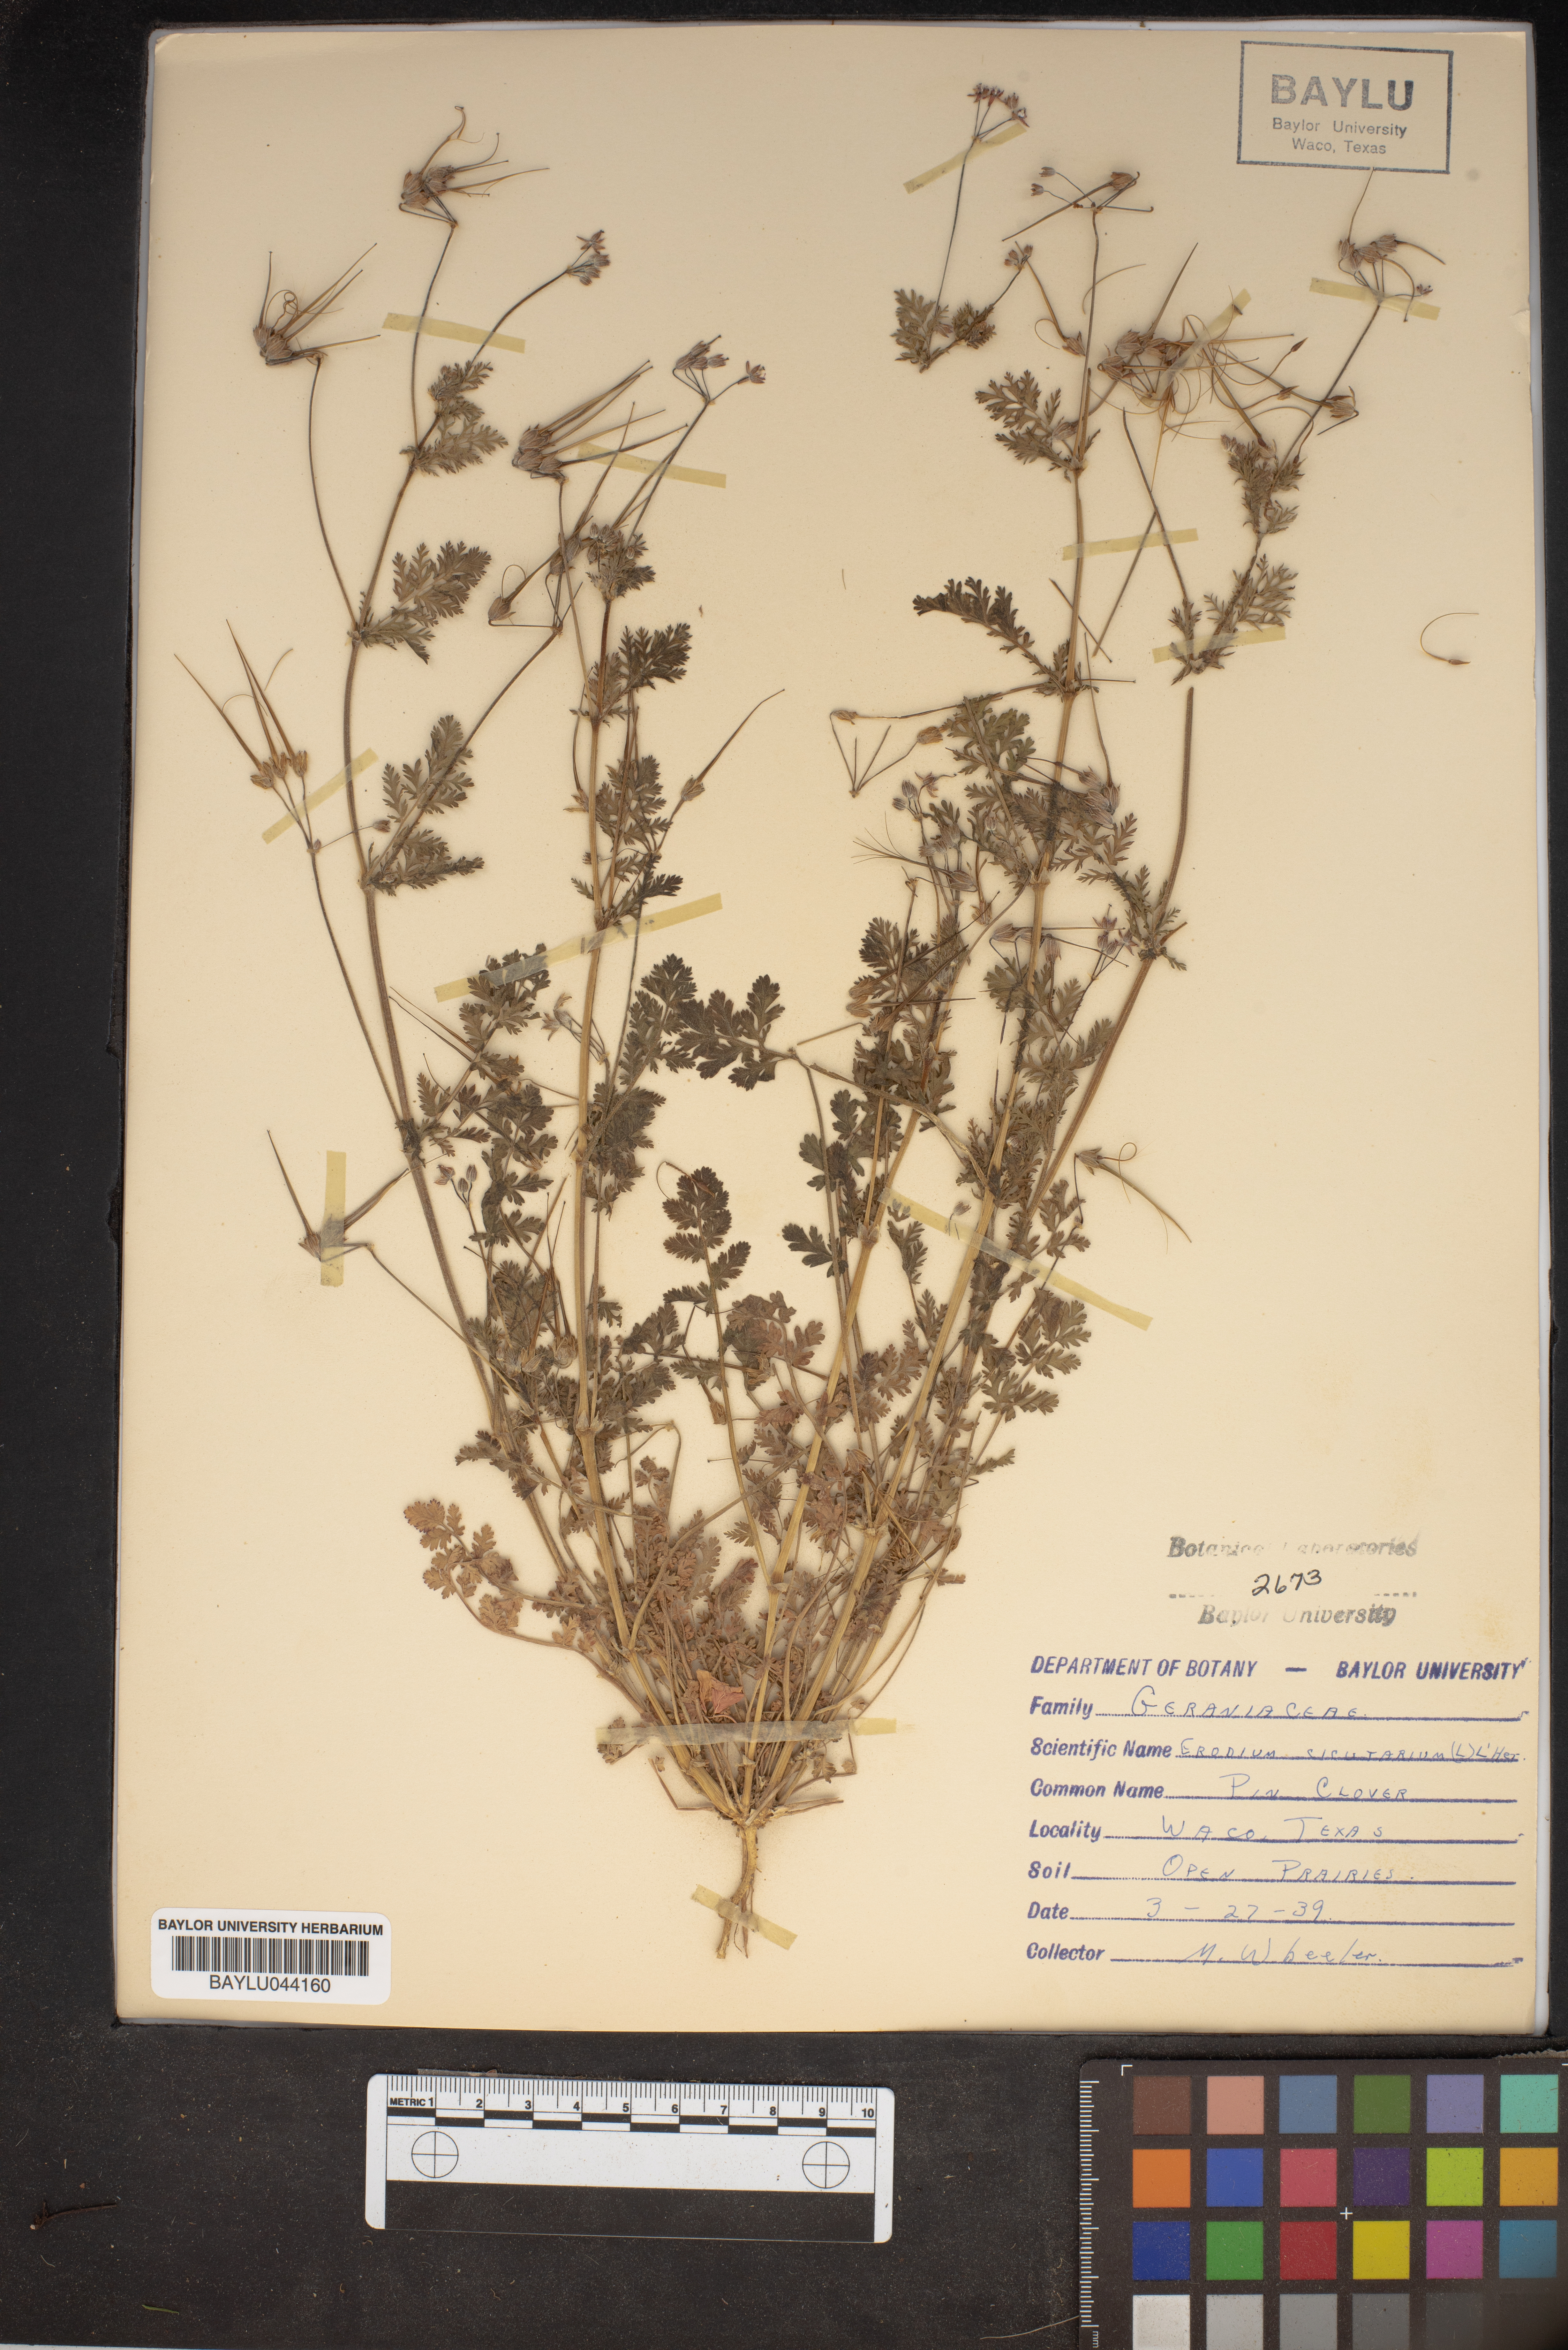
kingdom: Plantae
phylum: Tracheophyta
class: Magnoliopsida
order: Geraniales
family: Geraniaceae
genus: Erodium
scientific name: Erodium cicutarium
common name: Common stork's-bill
